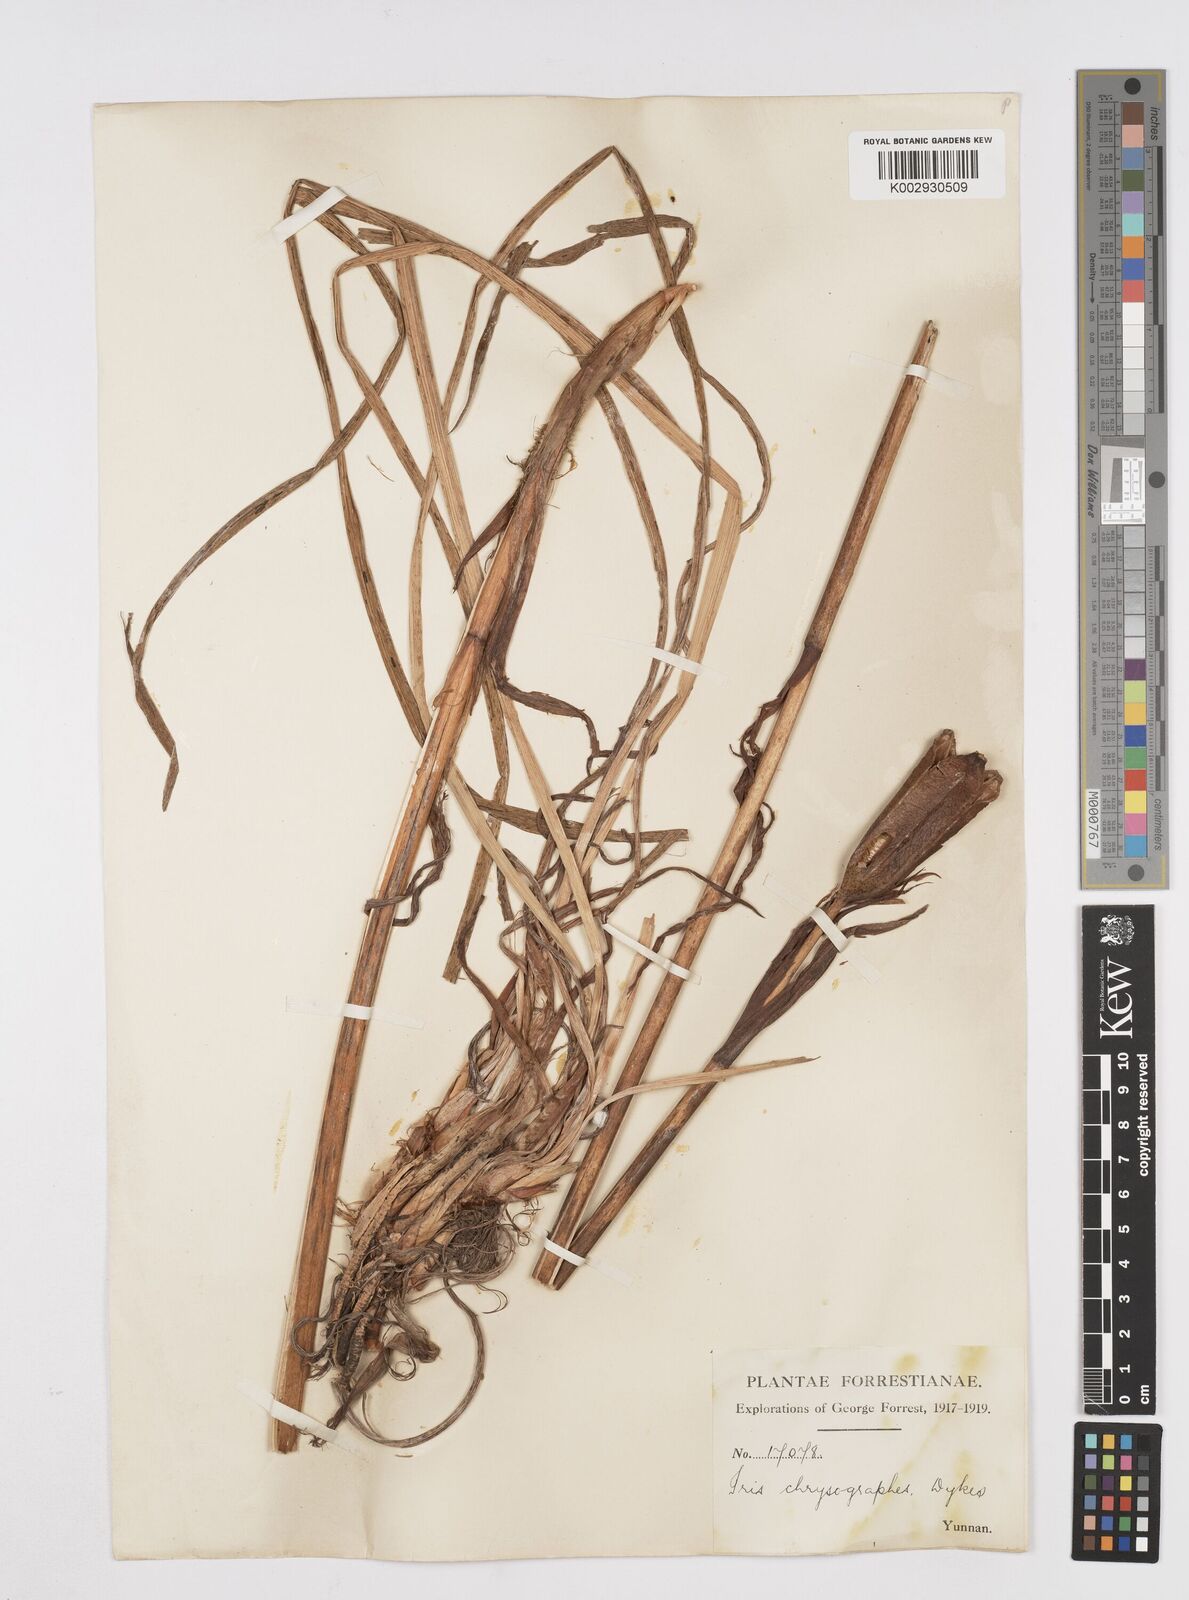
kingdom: Plantae
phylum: Tracheophyta
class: Liliopsida
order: Asparagales
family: Iridaceae
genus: Iris
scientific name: Iris chrysographes
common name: Gold-vein iris
